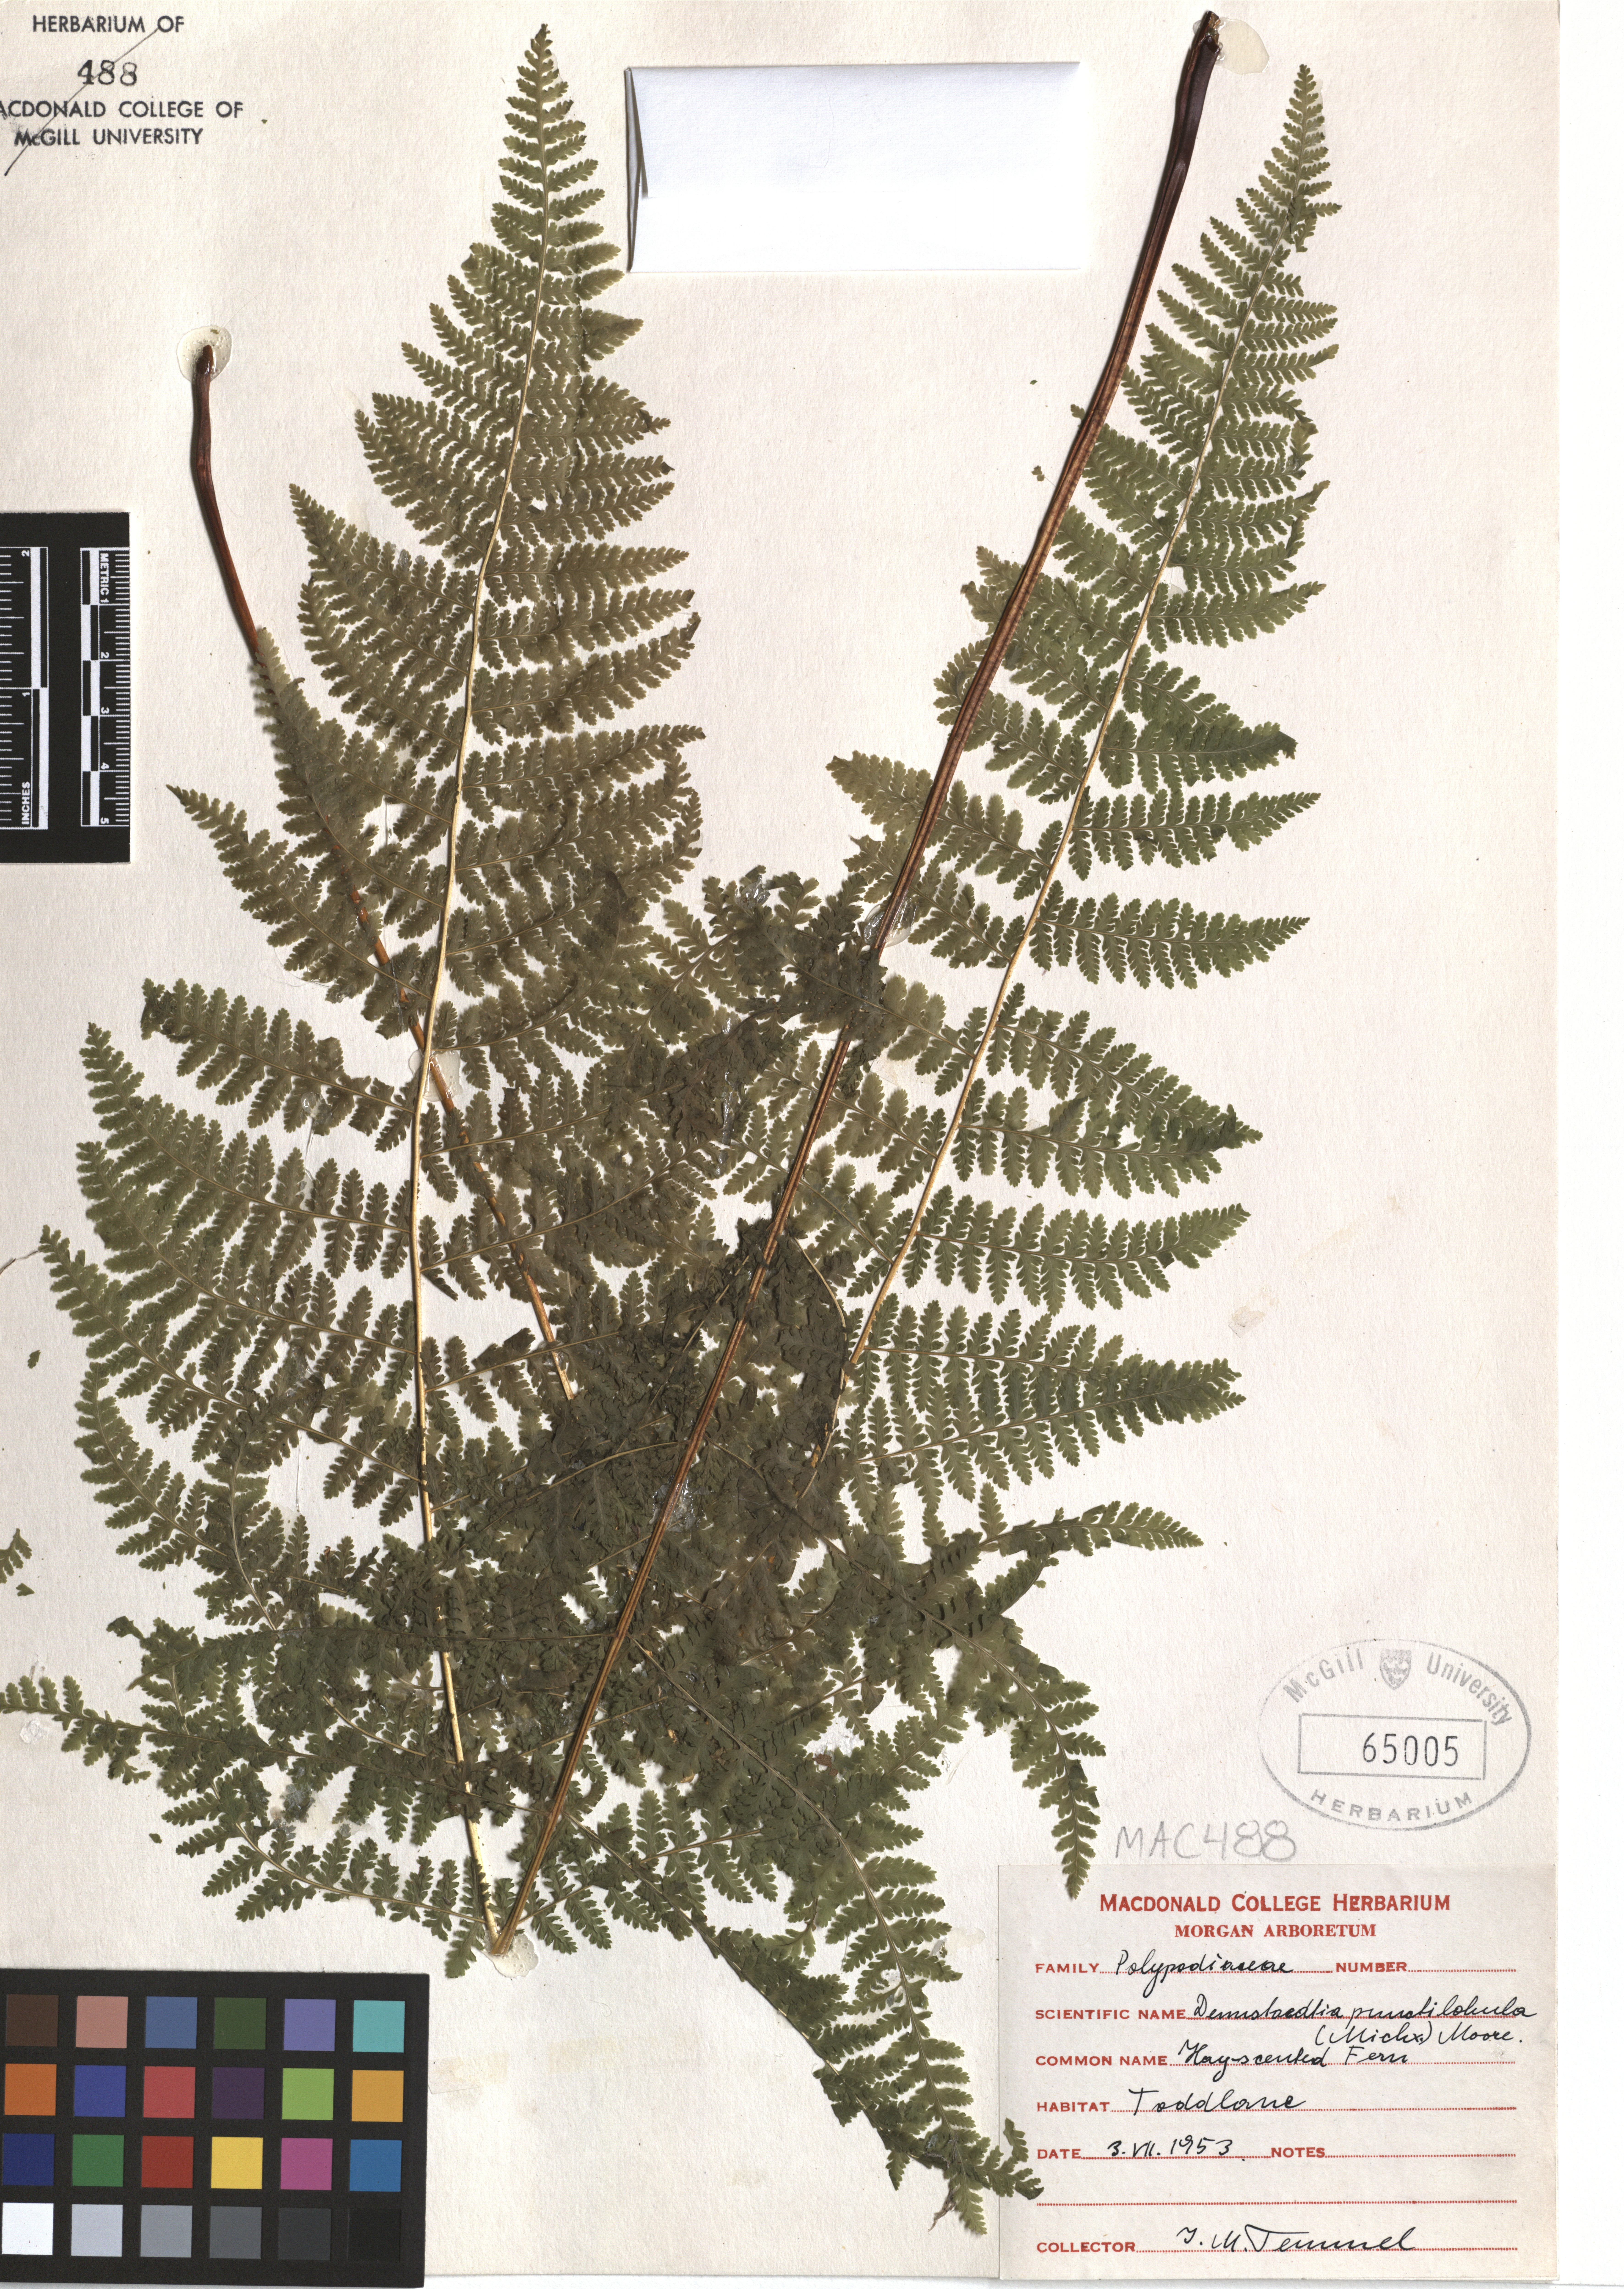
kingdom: Plantae
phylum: Tracheophyta
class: Polypodiopsida
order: Polypodiales
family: Dennstaedtiaceae
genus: Sitobolium
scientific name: Sitobolium punctilobum
